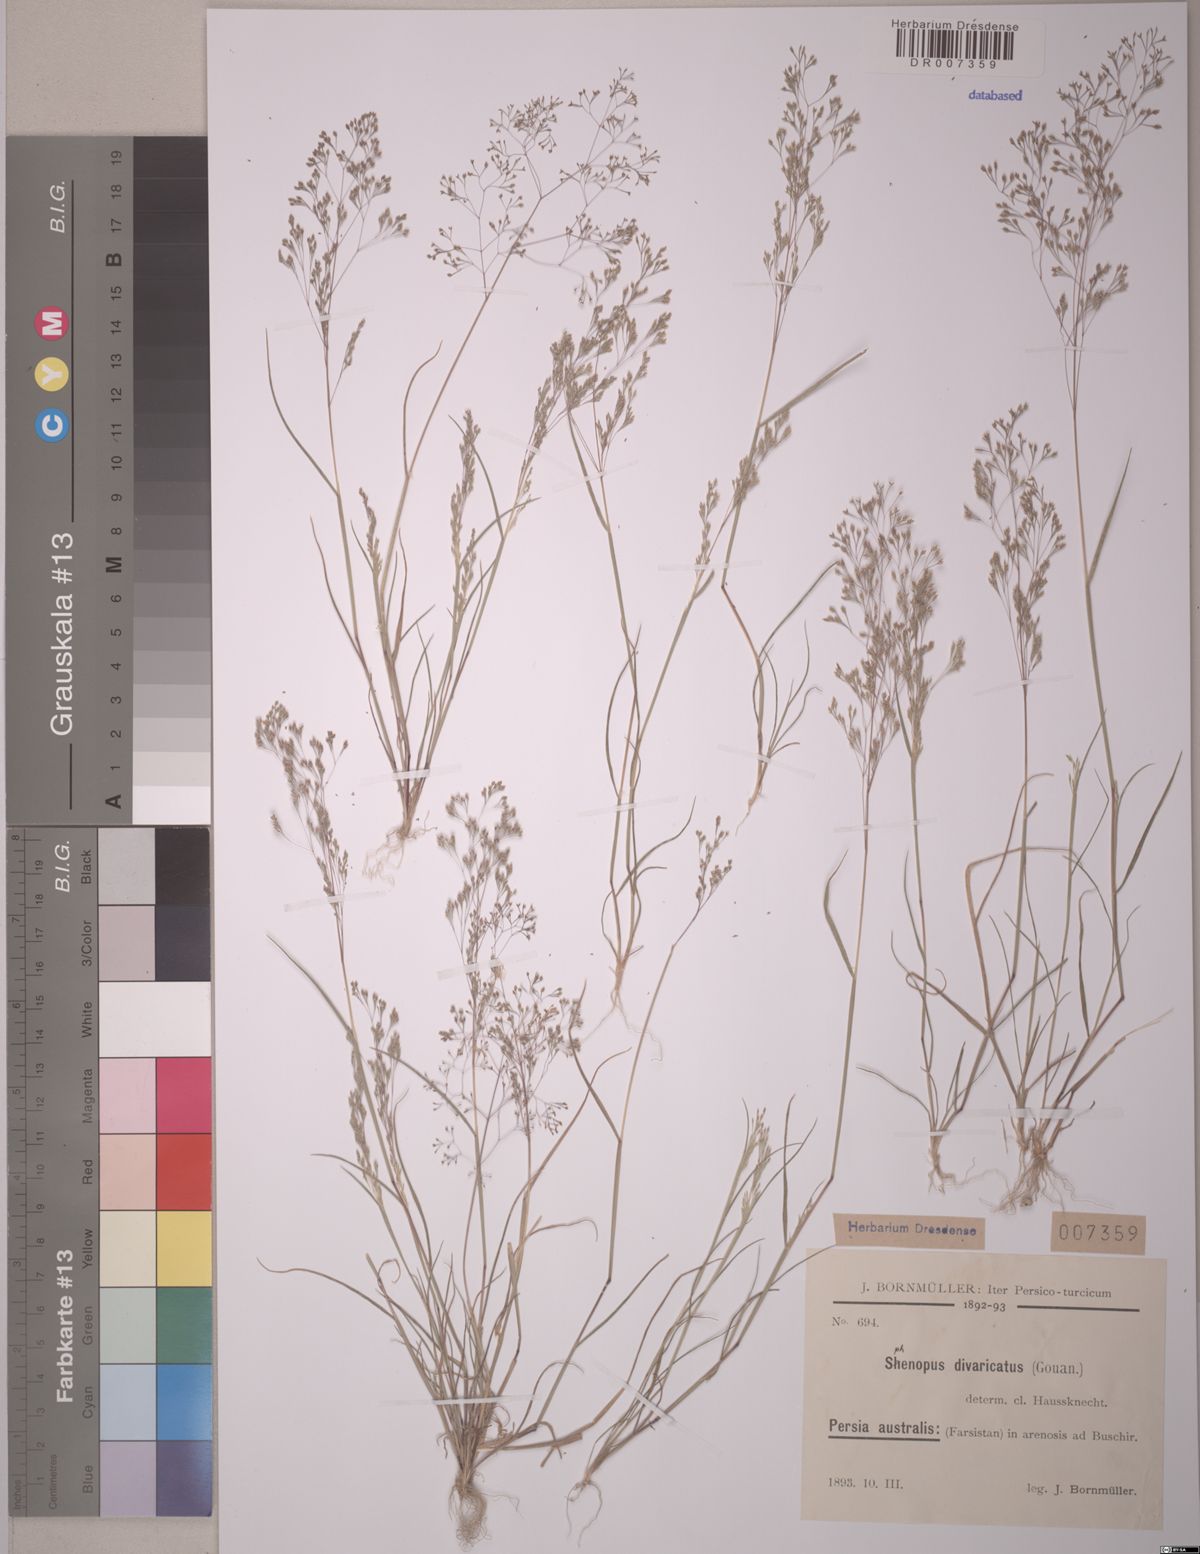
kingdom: Plantae
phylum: Tracheophyta
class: Liliopsida
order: Poales
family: Poaceae
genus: Sphenopus
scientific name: Sphenopus divaricatus
